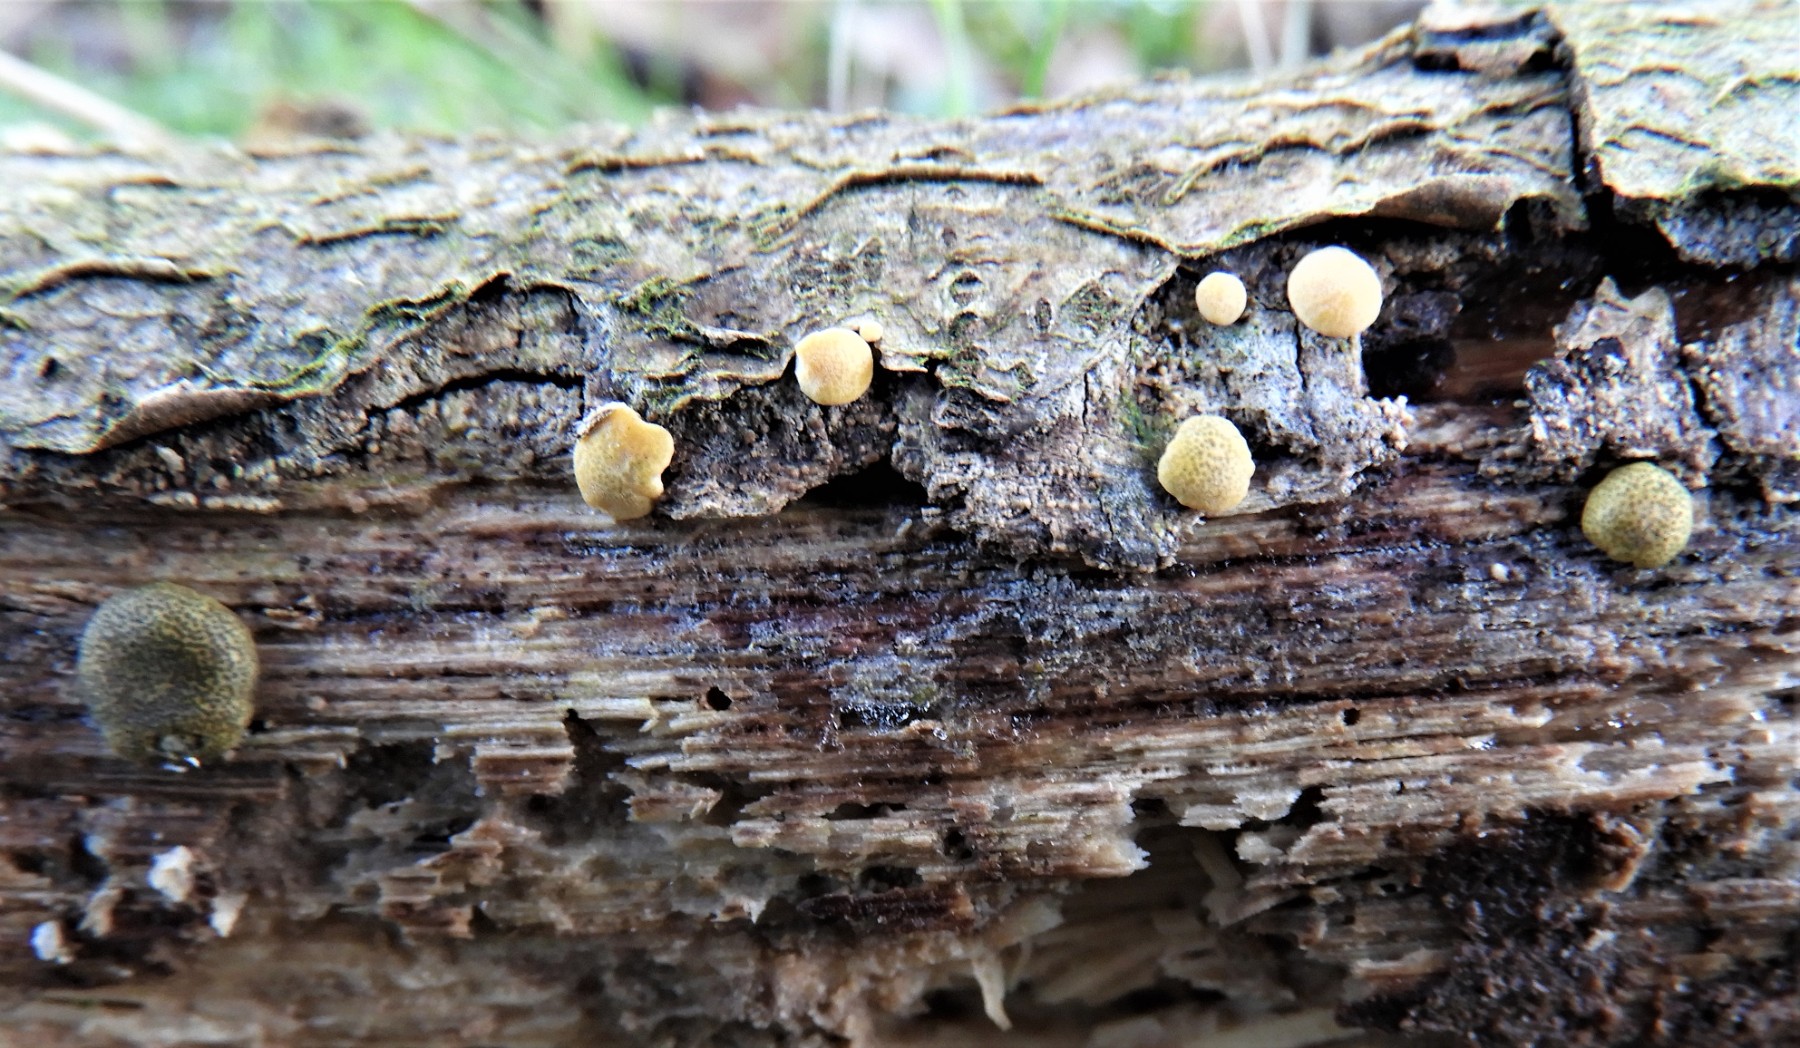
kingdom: Fungi
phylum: Ascomycota
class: Sordariomycetes
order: Hypocreales
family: Hypocreaceae
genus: Trichoderma
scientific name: Trichoderma aureoviride
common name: æggegul kødkerne
